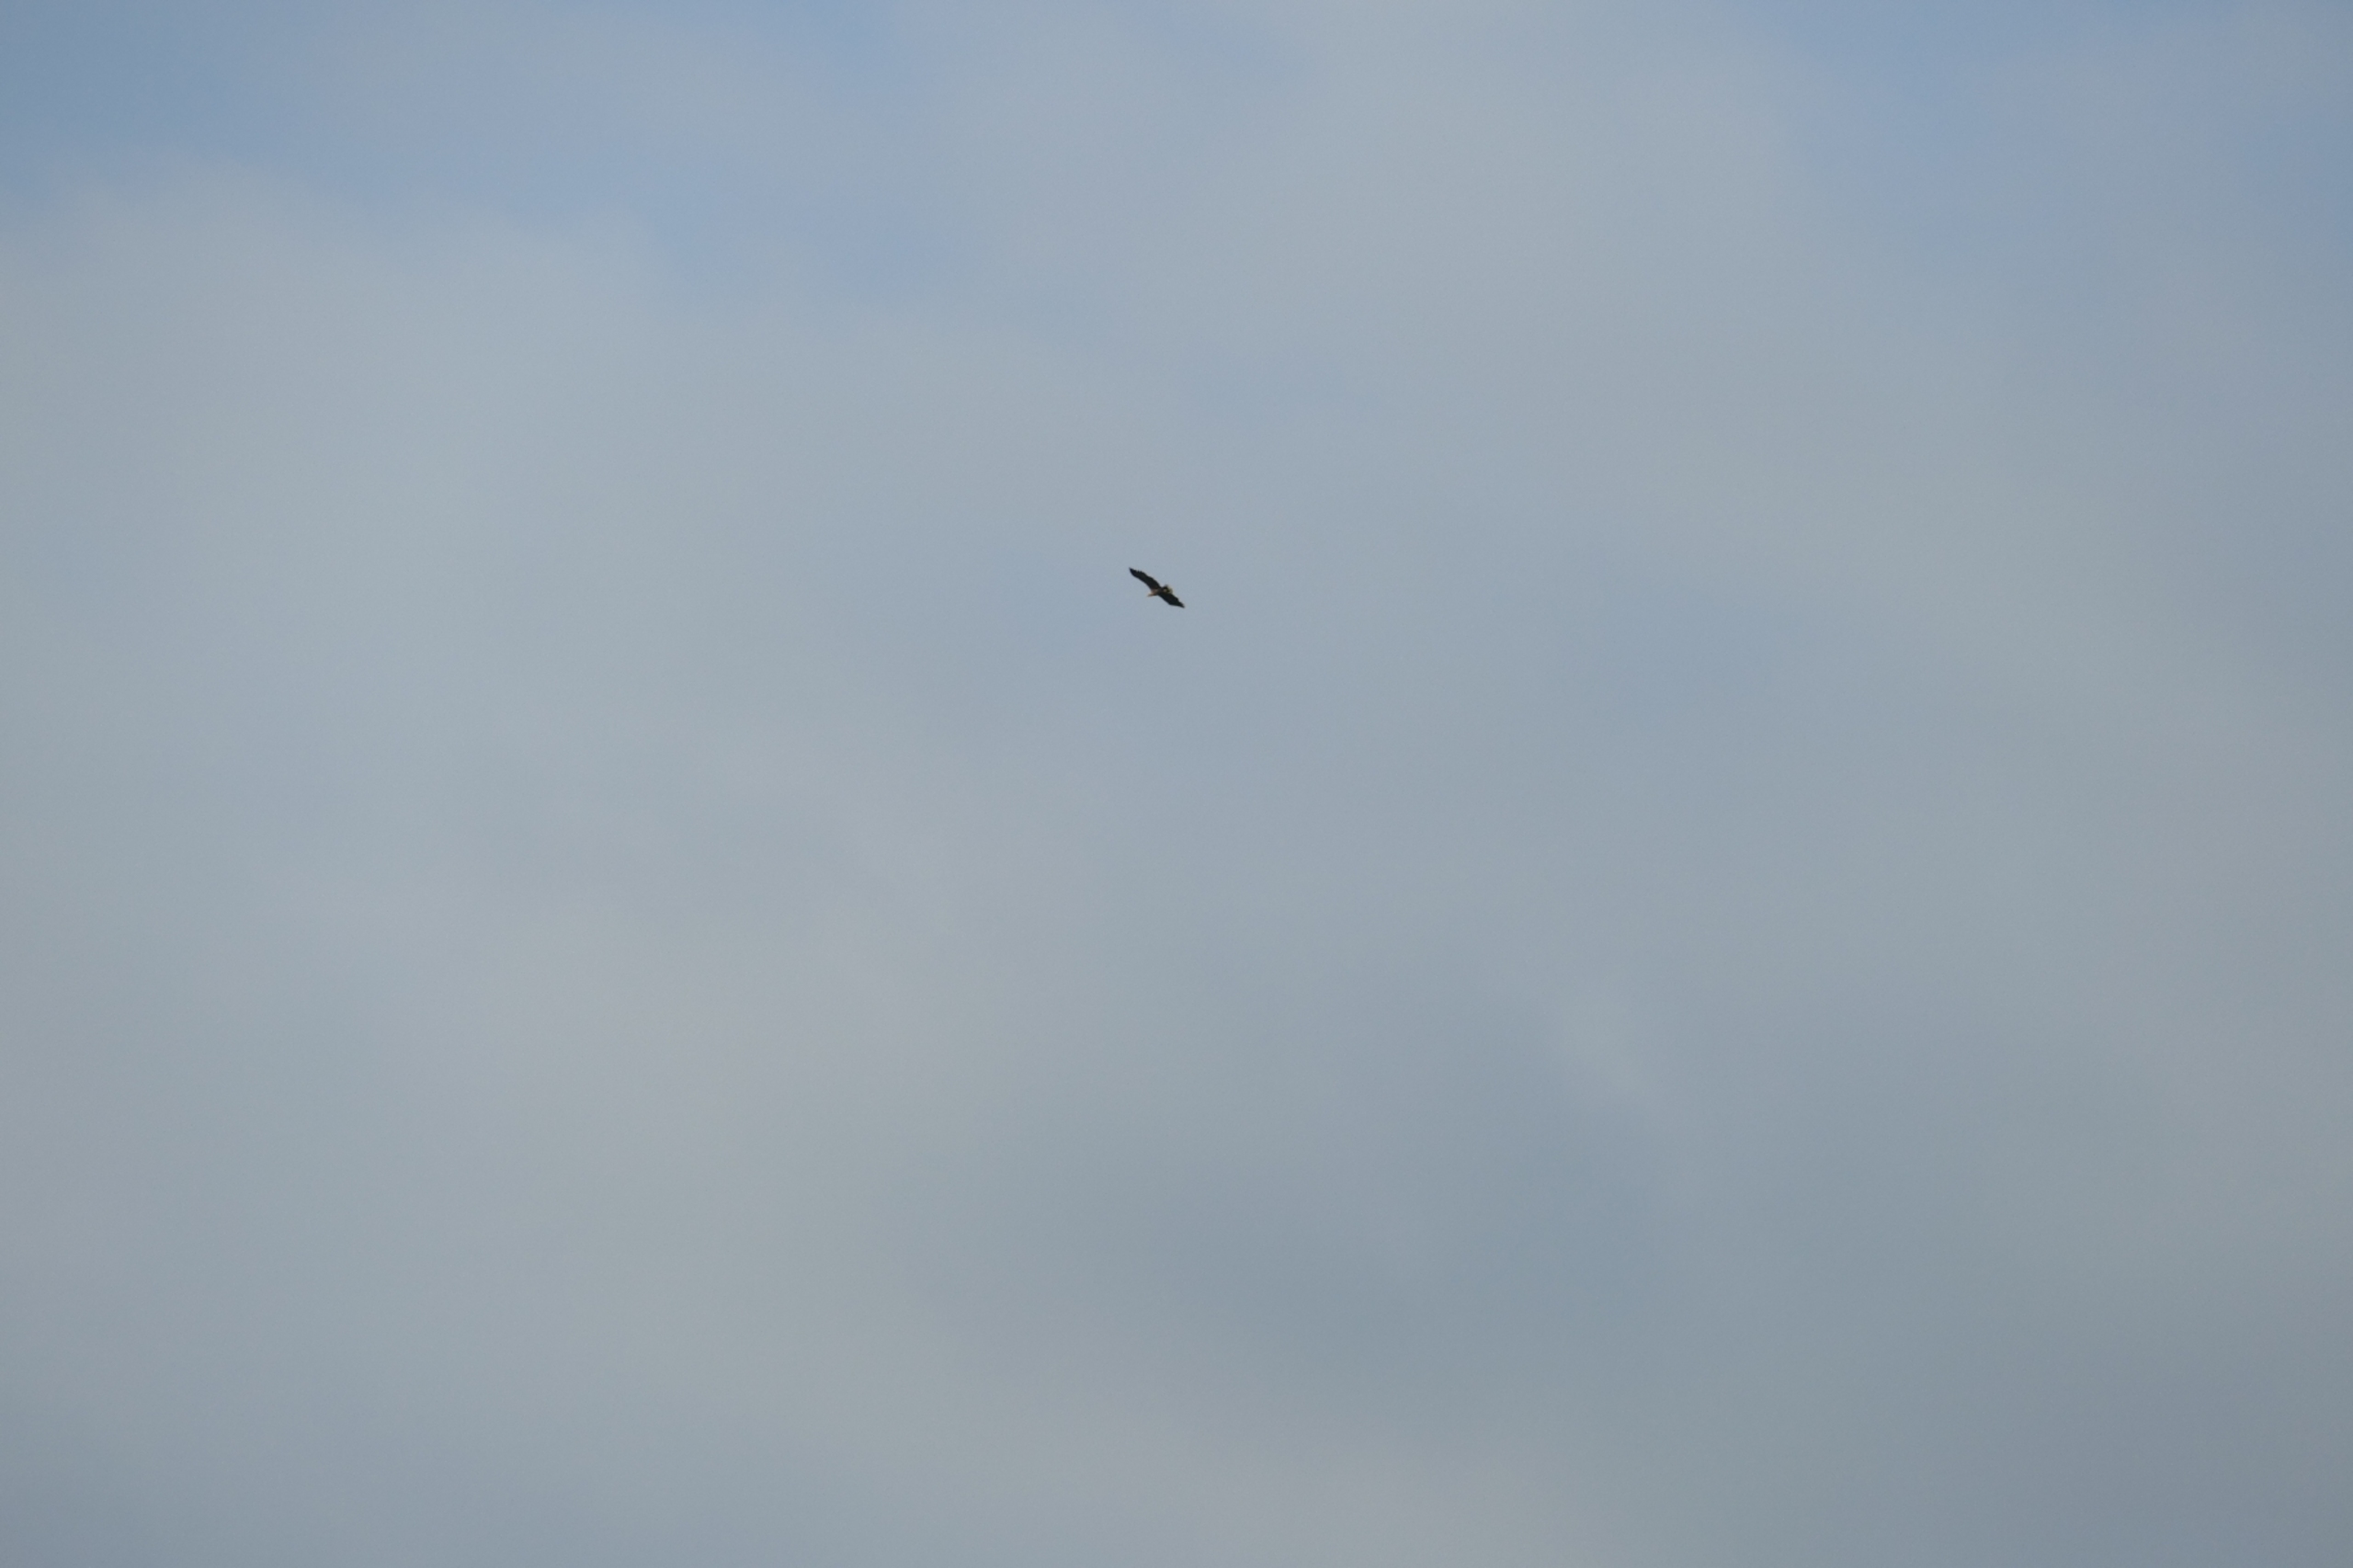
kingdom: Animalia
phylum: Chordata
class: Aves
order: Accipitriformes
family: Accipitridae
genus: Haliaeetus
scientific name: Haliaeetus albicilla
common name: Havørn
